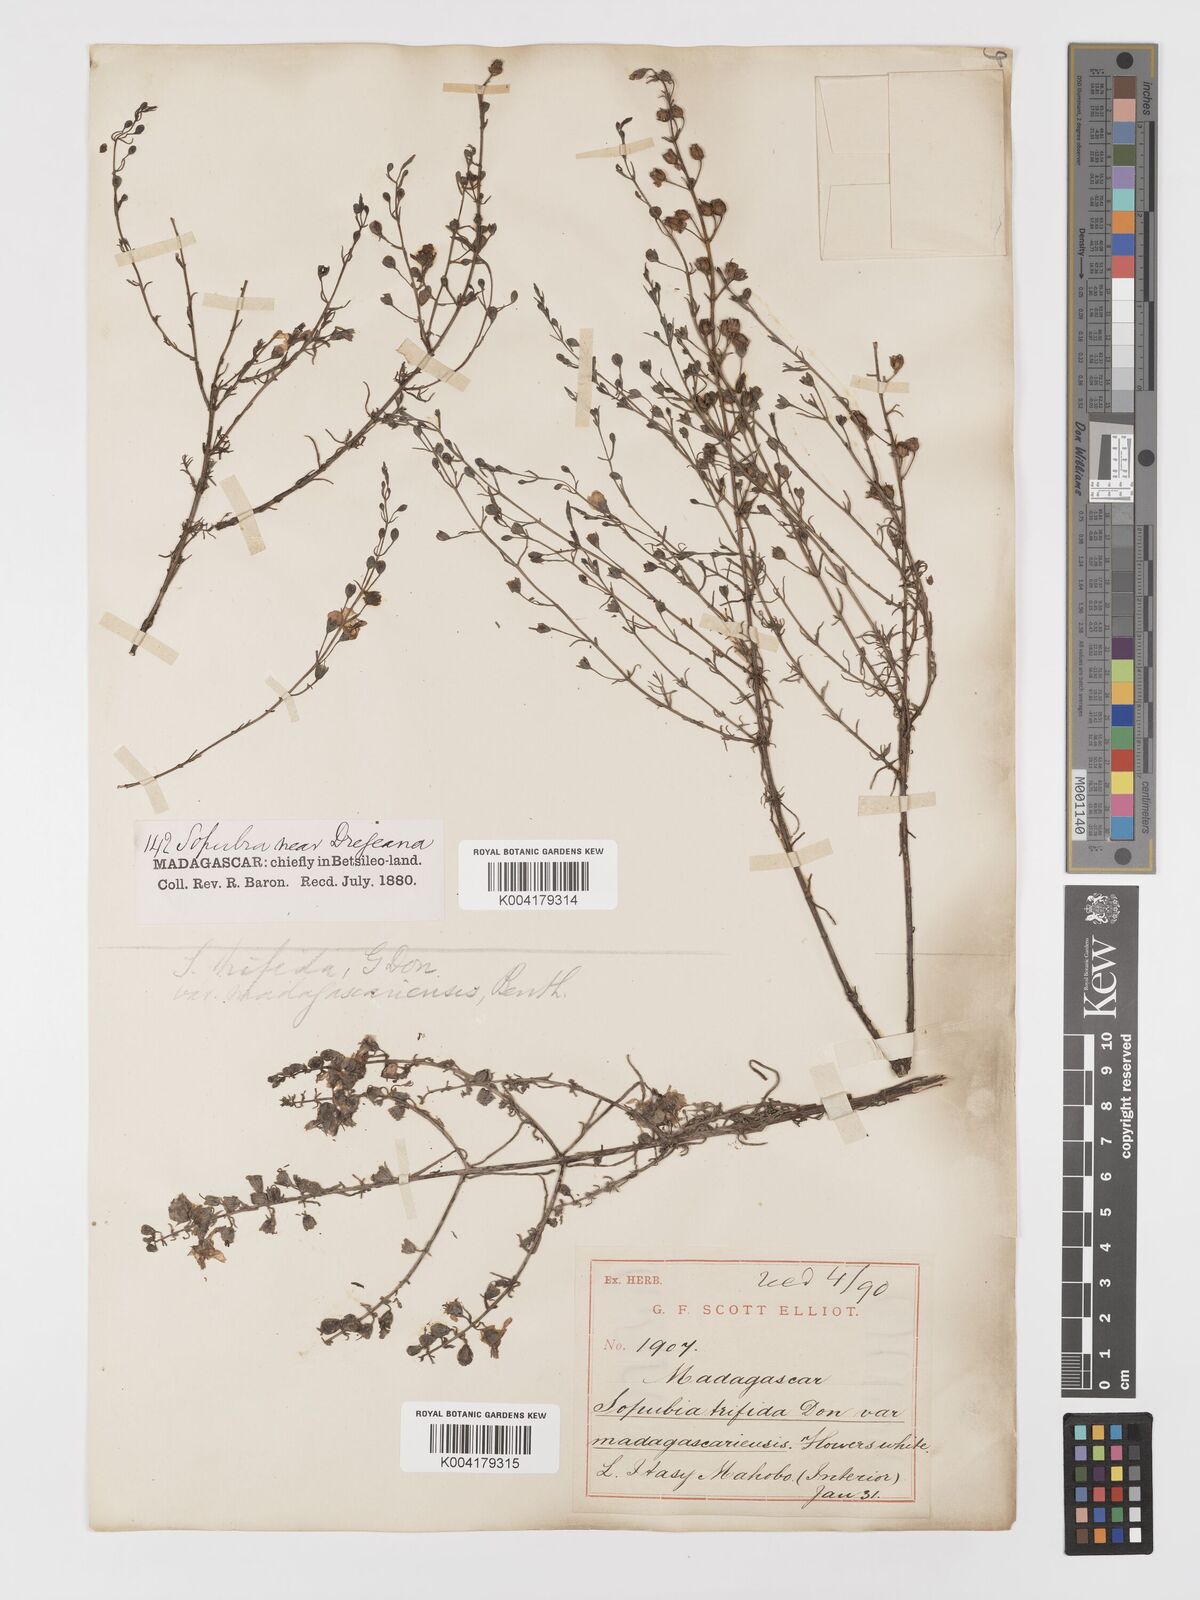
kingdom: Plantae
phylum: Tracheophyta
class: Magnoliopsida
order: Lamiales
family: Orobanchaceae
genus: Sopubia
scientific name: Sopubia trifida
